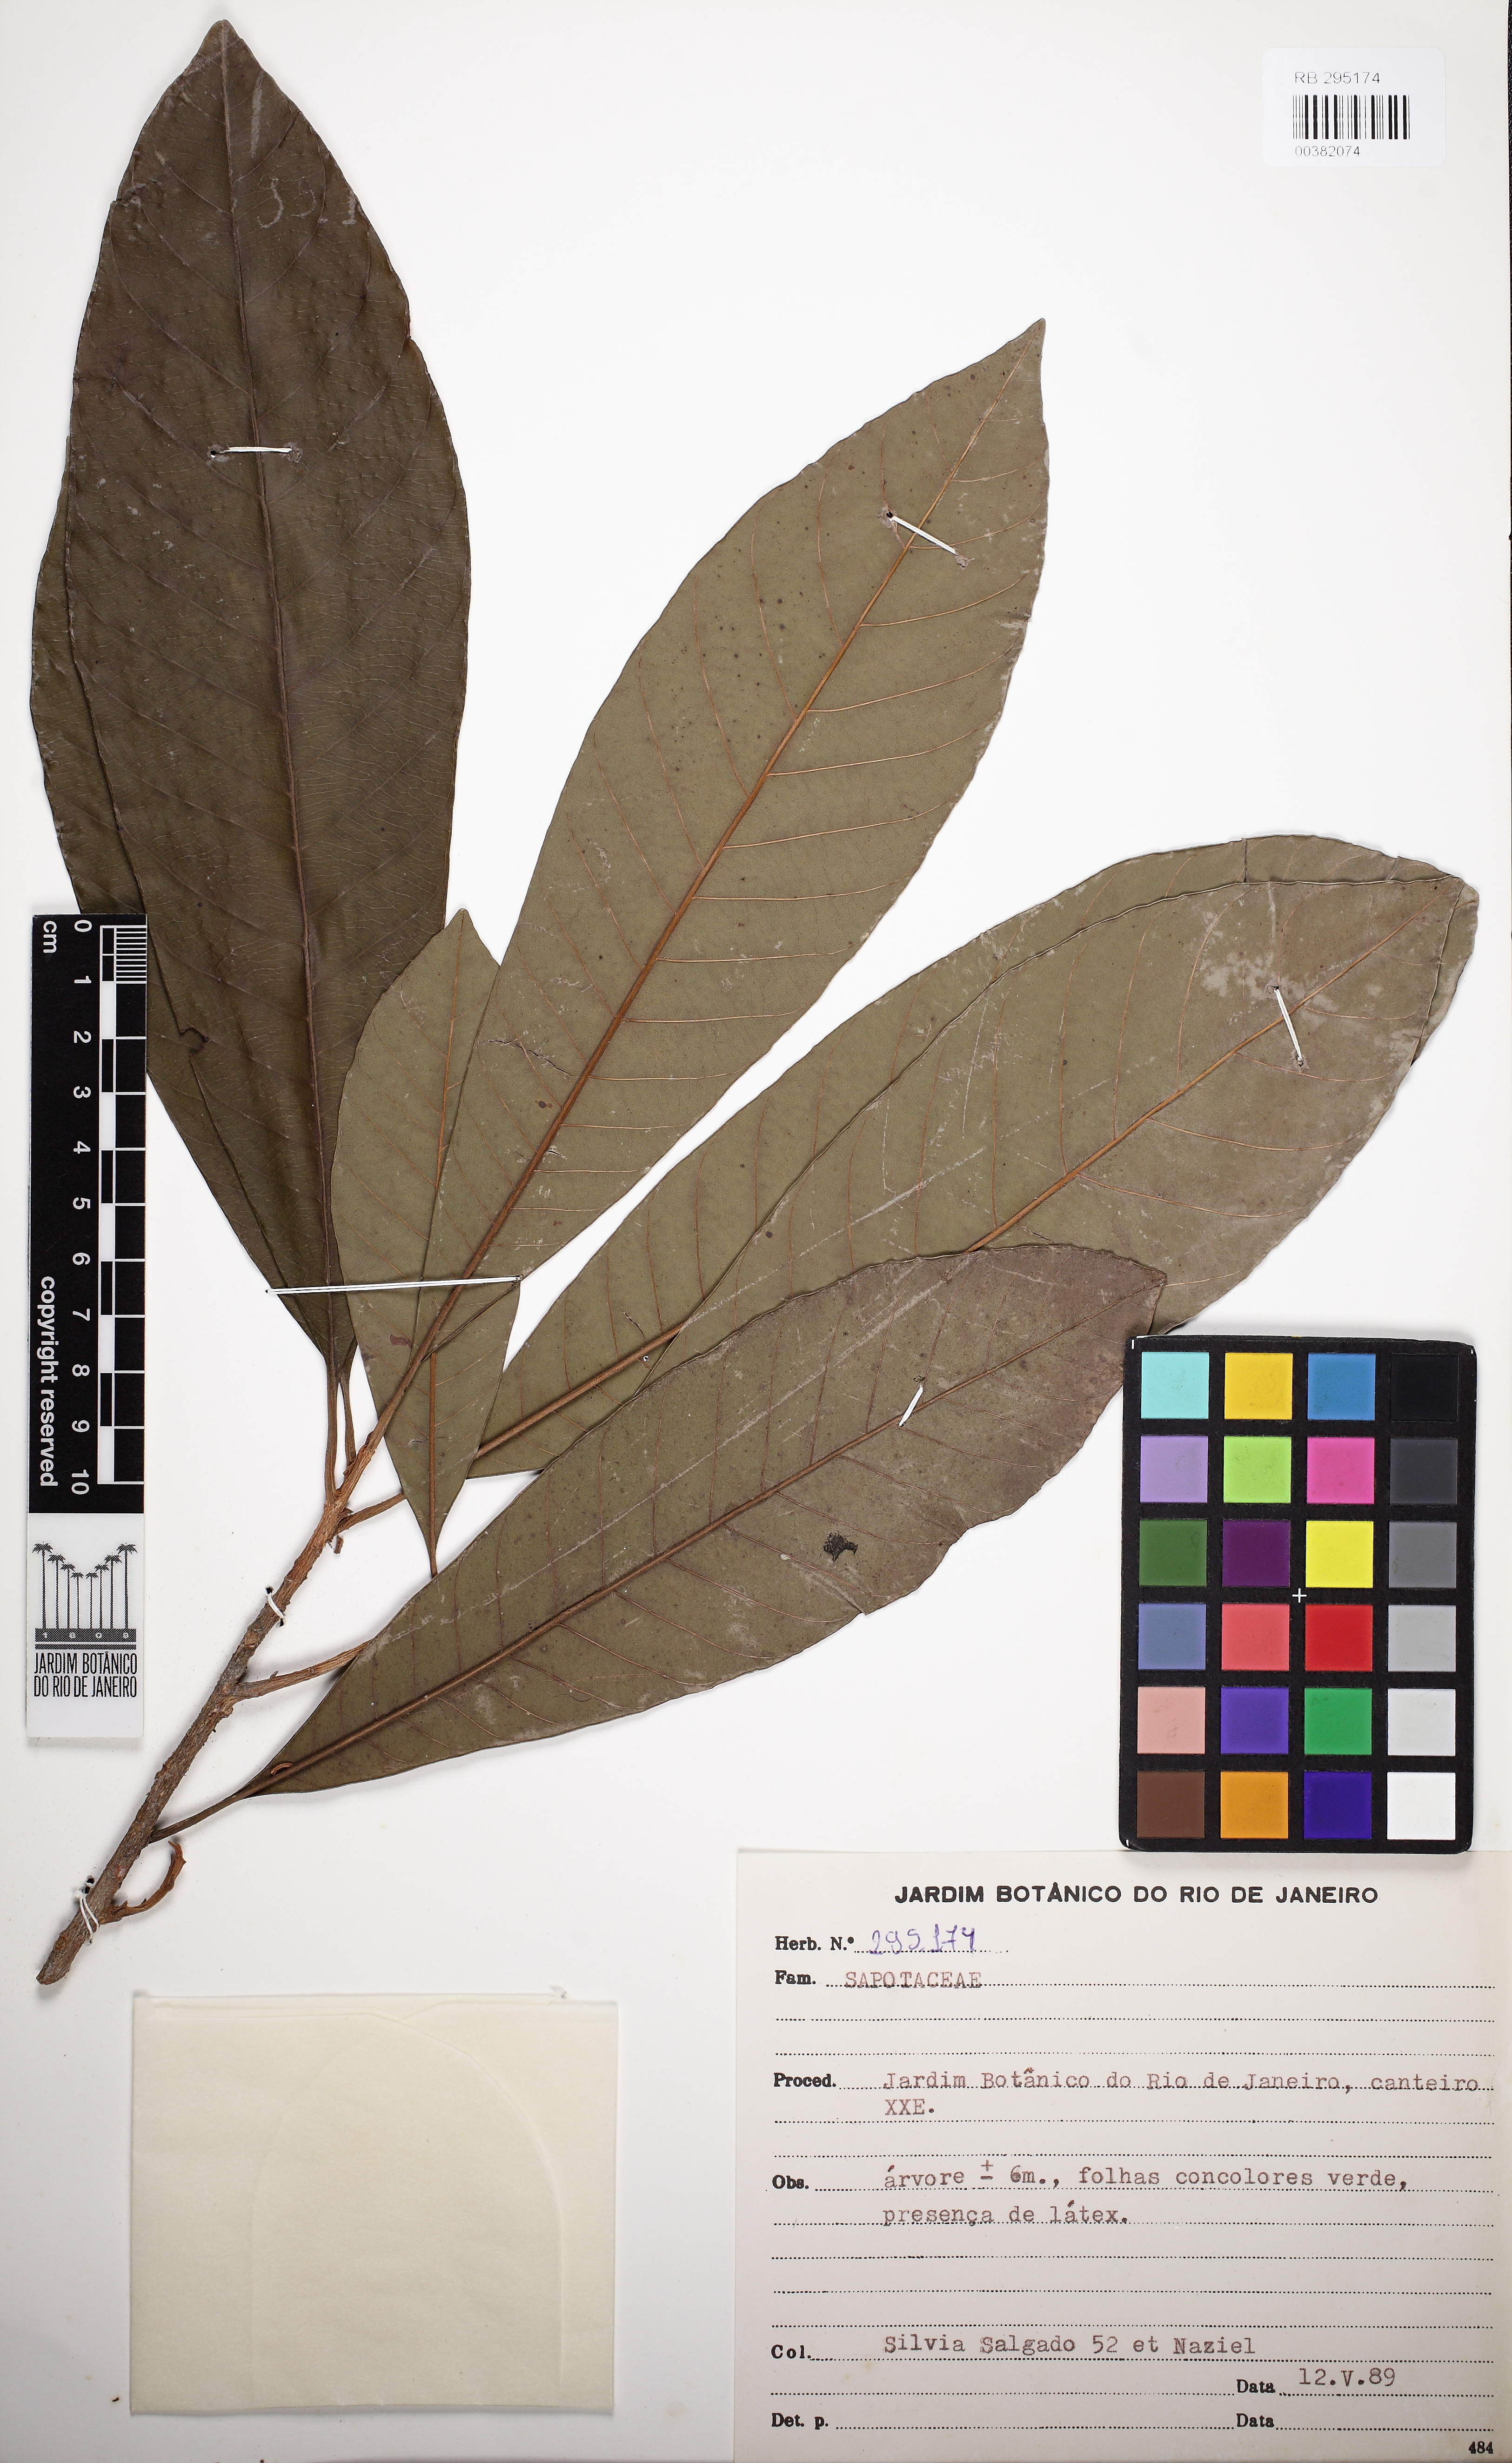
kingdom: Plantae
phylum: Tracheophyta
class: Magnoliopsida
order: Ericales
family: Sapotaceae
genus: Pouteria
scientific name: Pouteria macrophylla
